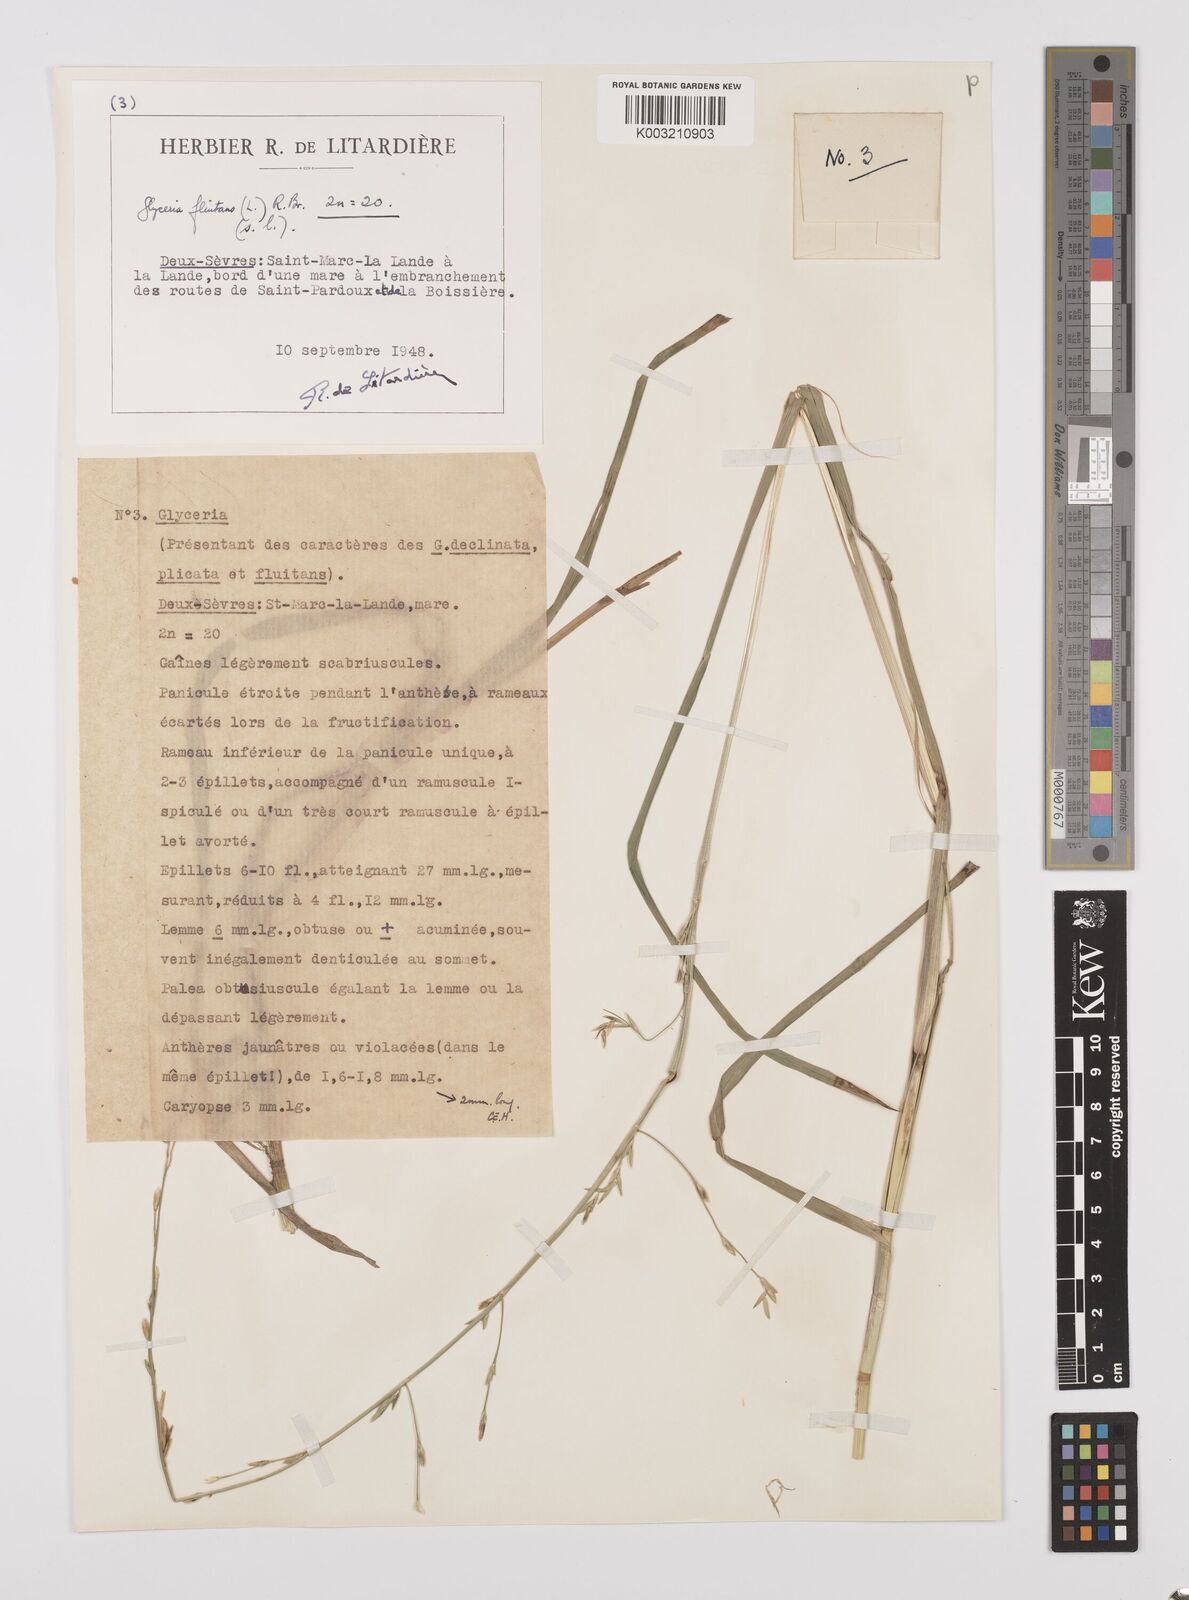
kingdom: Plantae
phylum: Tracheophyta
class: Liliopsida
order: Poales
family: Poaceae
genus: Glyceria
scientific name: Glyceria fluitans
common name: Floating sweet-grass
